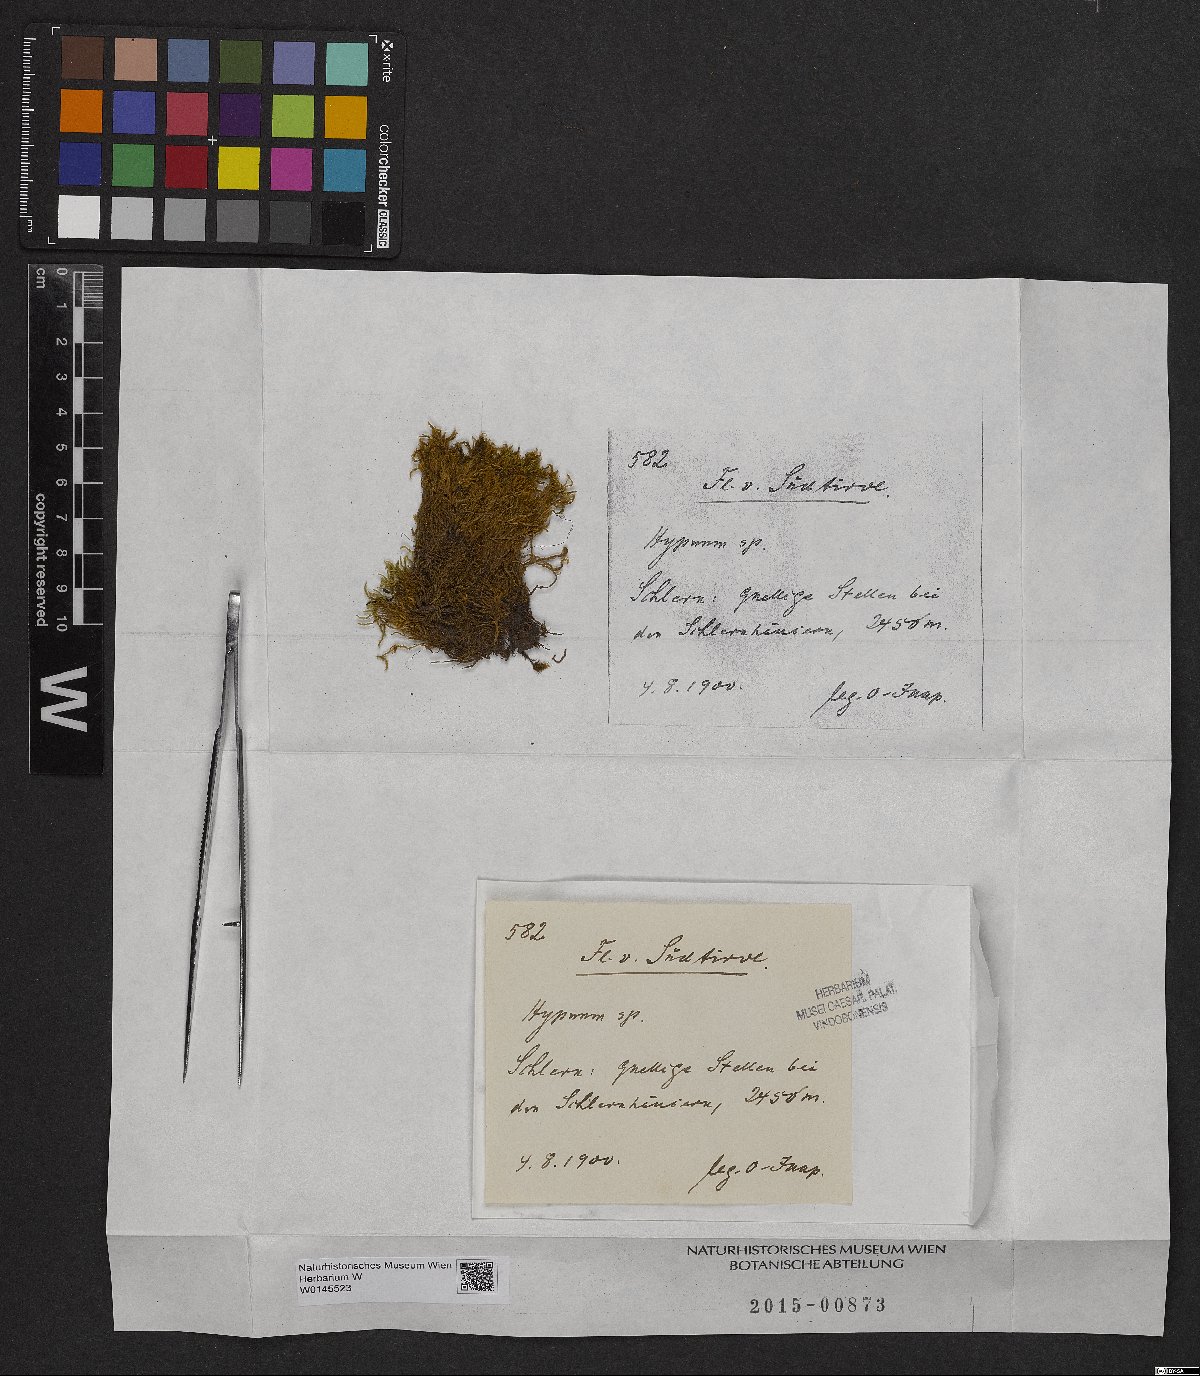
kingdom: Plantae
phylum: Bryophyta
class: Bryopsida
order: Hypnales
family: Hypnaceae
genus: Hypnum
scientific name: Hypnum
